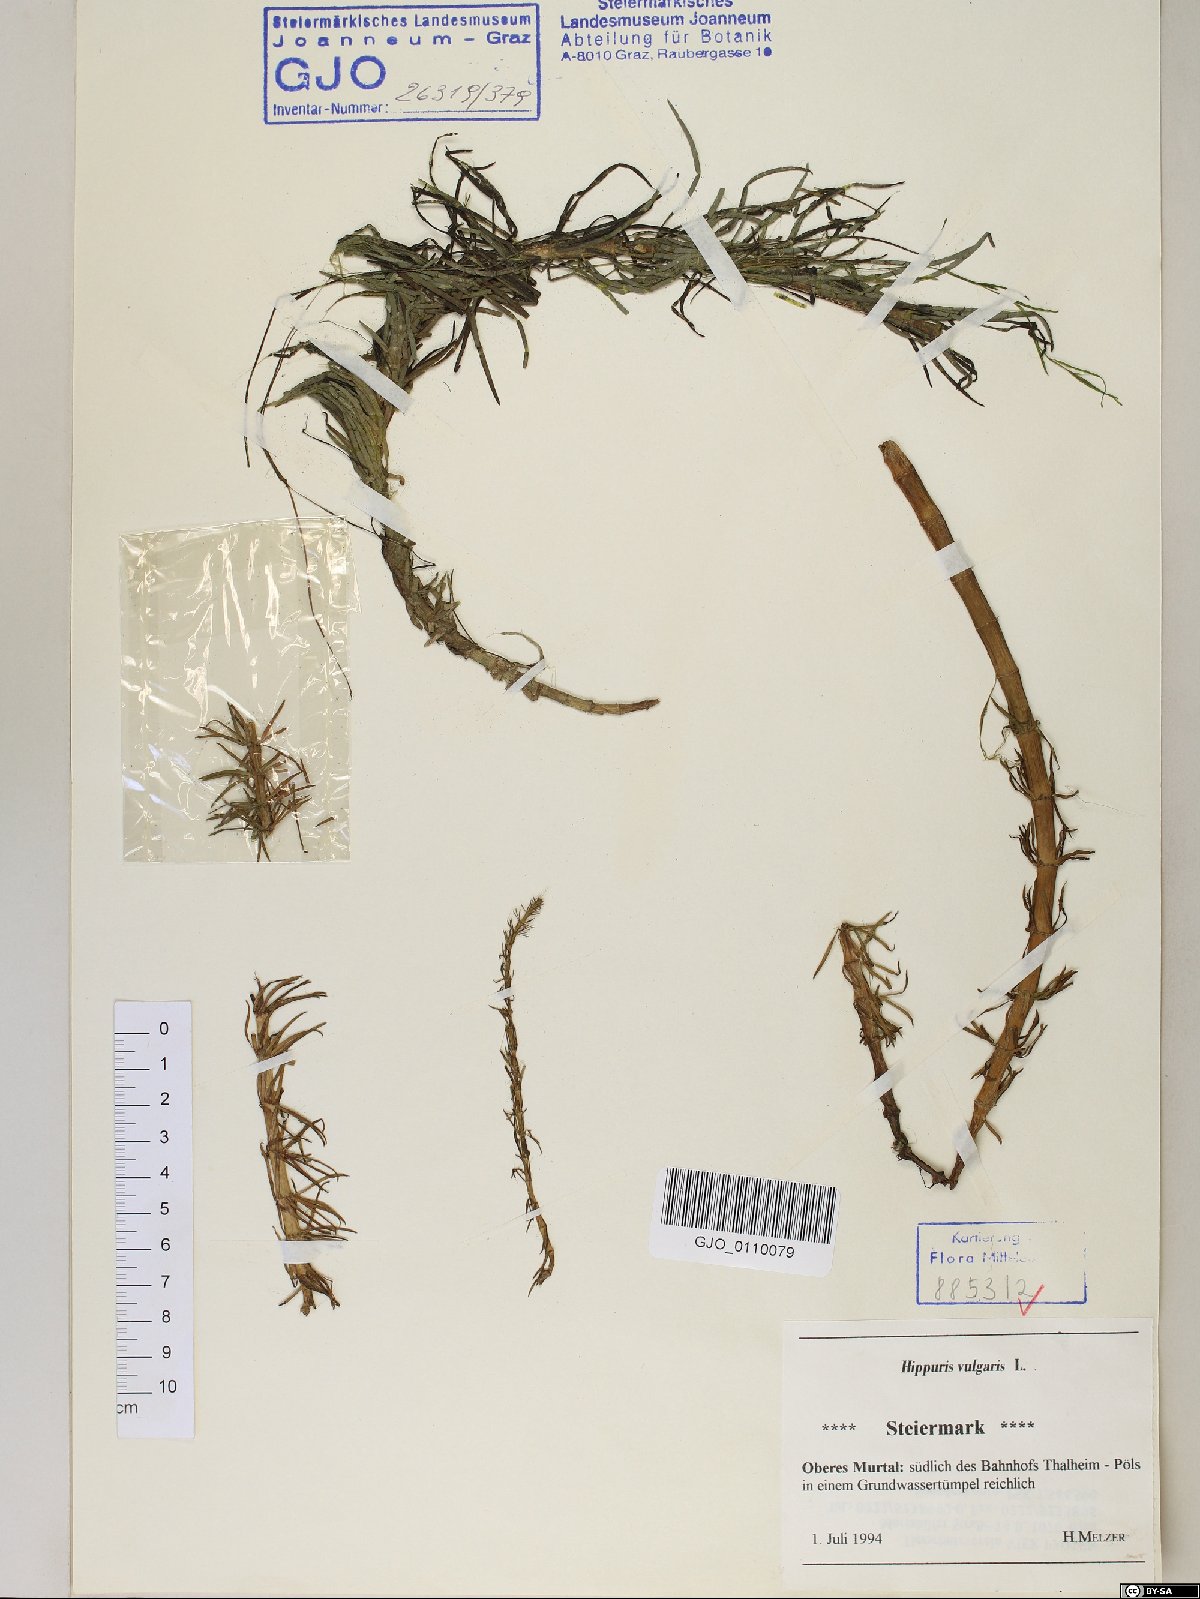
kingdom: Plantae
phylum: Tracheophyta
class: Magnoliopsida
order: Lamiales
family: Plantaginaceae
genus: Hippuris
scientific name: Hippuris vulgaris
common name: Mare's-tail
